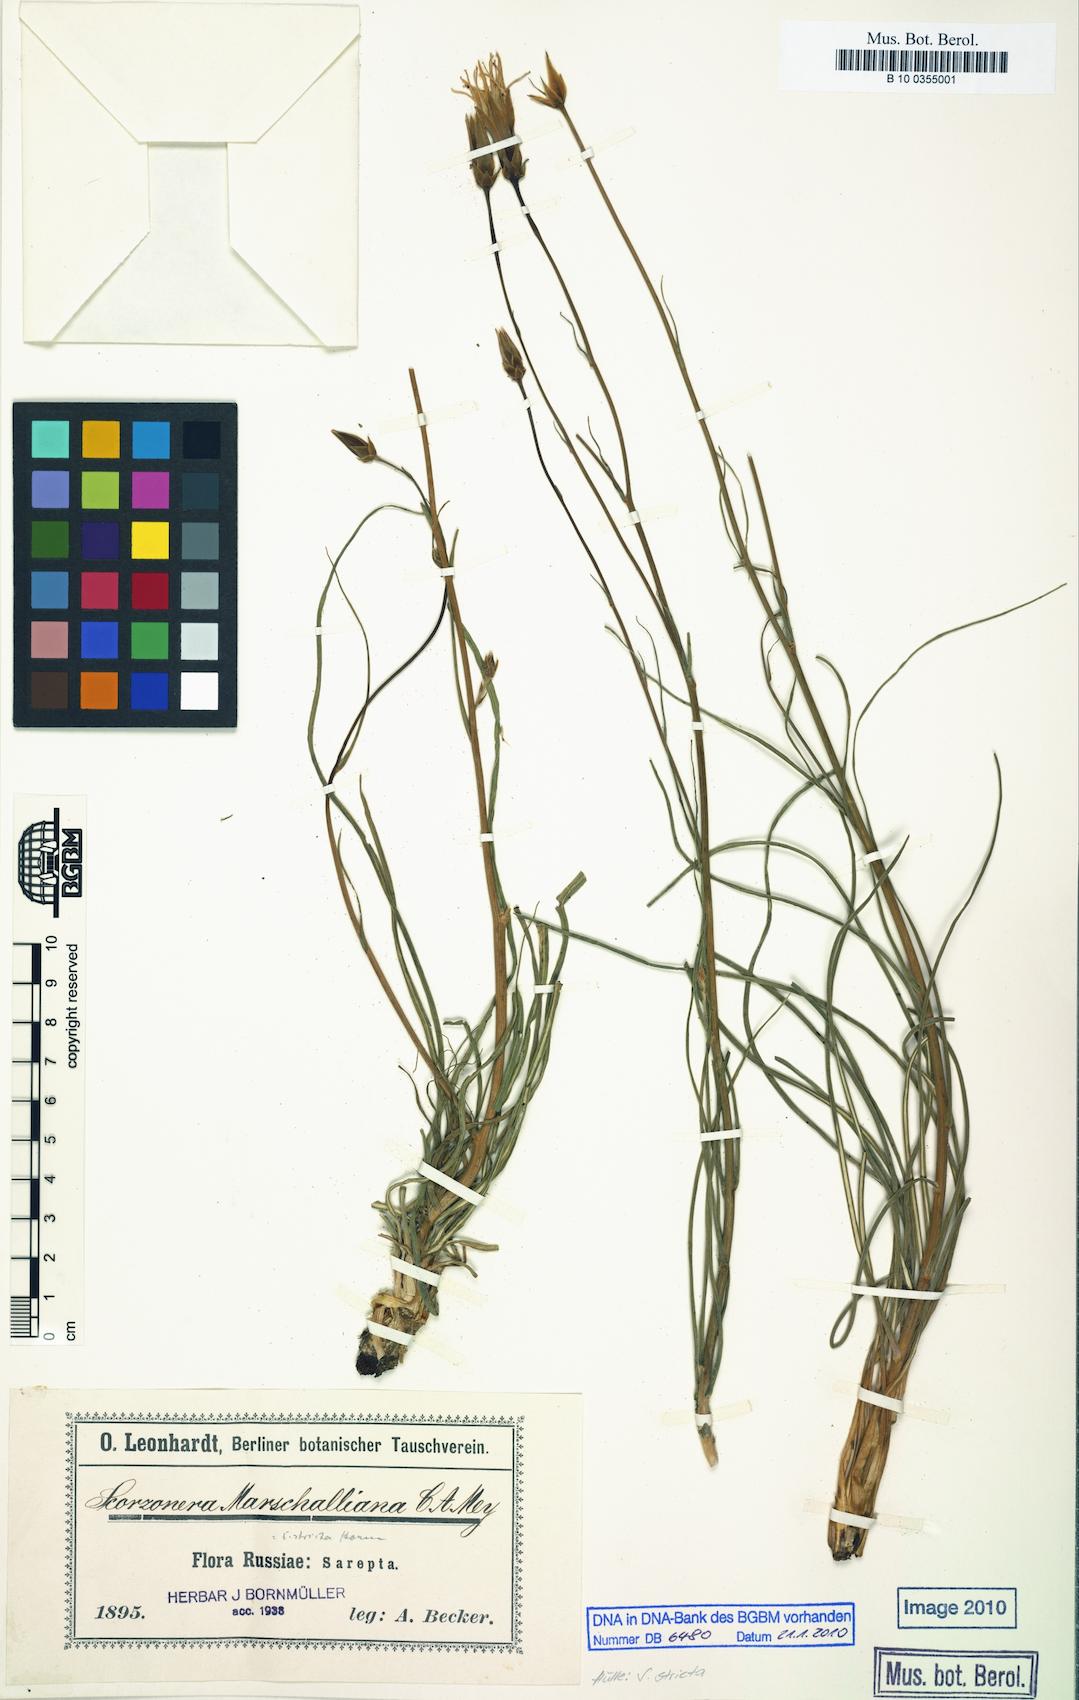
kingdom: Plantae
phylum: Tracheophyta
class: Magnoliopsida
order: Asterales
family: Asteraceae
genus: Pseudopodospermum
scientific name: Pseudopodospermum tauricum
